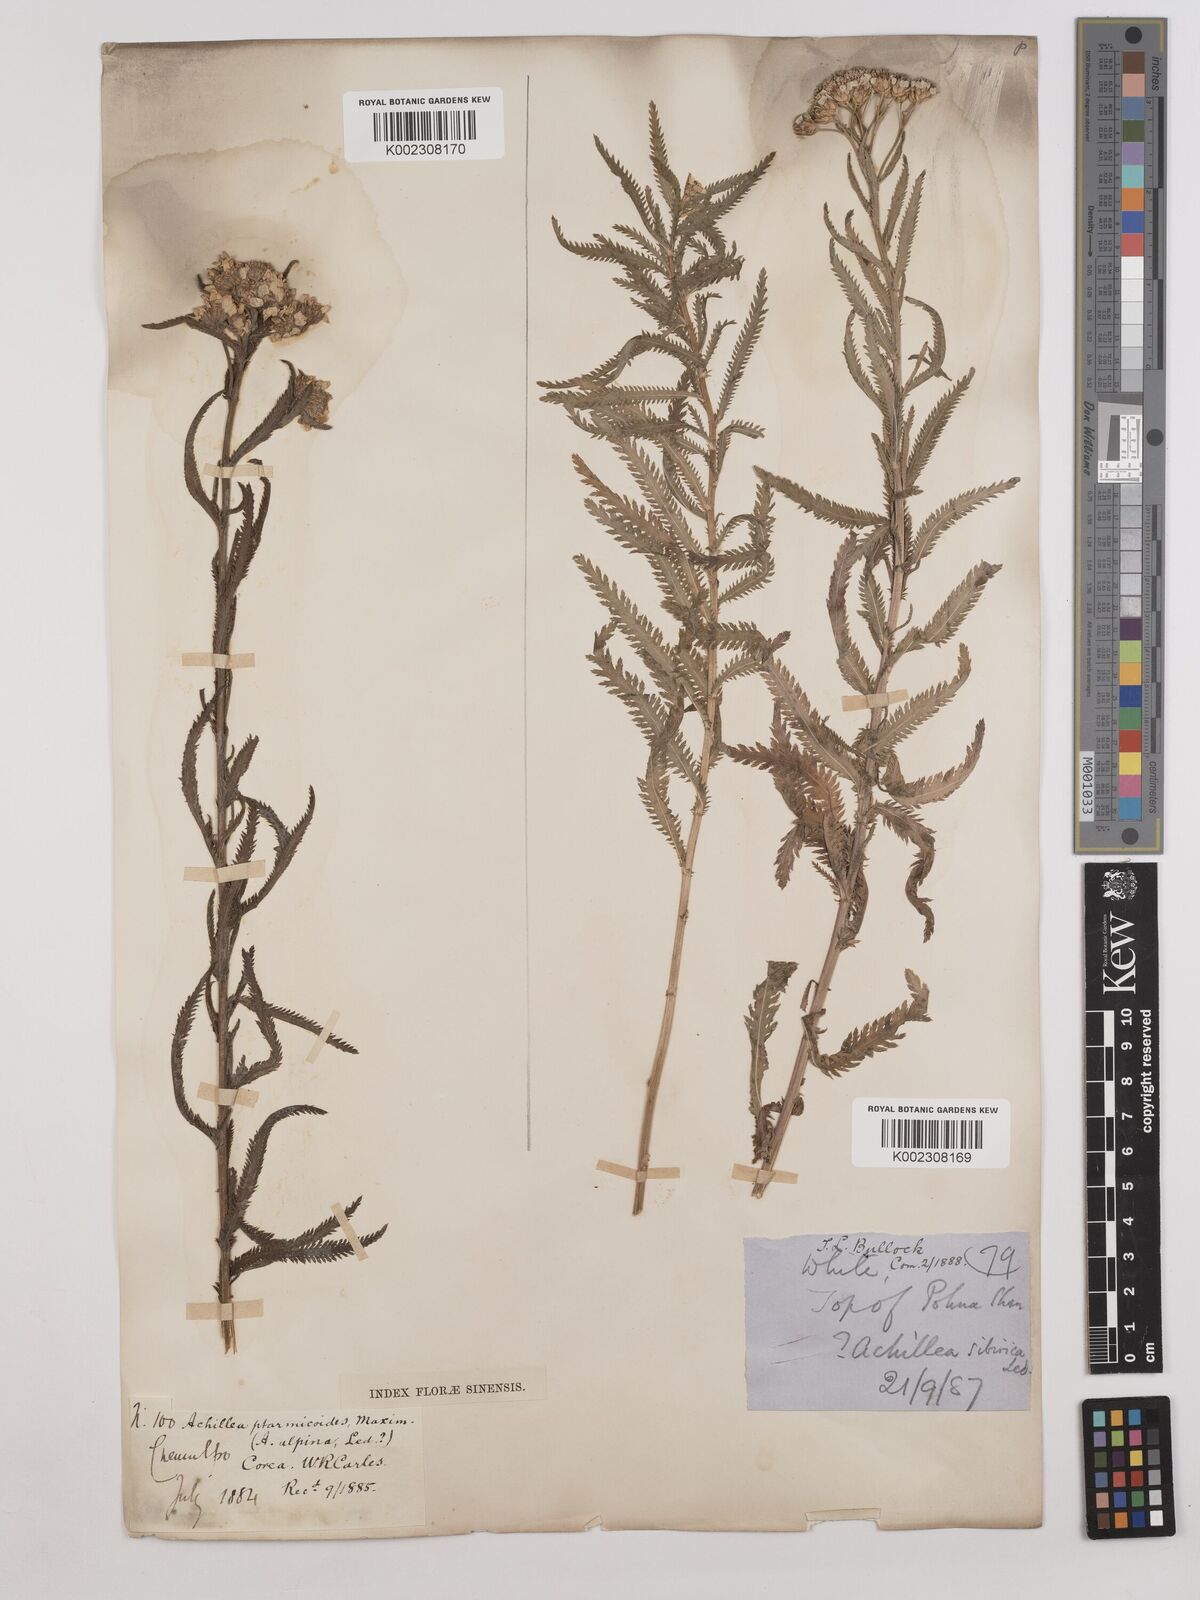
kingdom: Plantae
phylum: Tracheophyta
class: Magnoliopsida
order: Asterales
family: Asteraceae
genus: Achillea
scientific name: Achillea ptarmicoides
